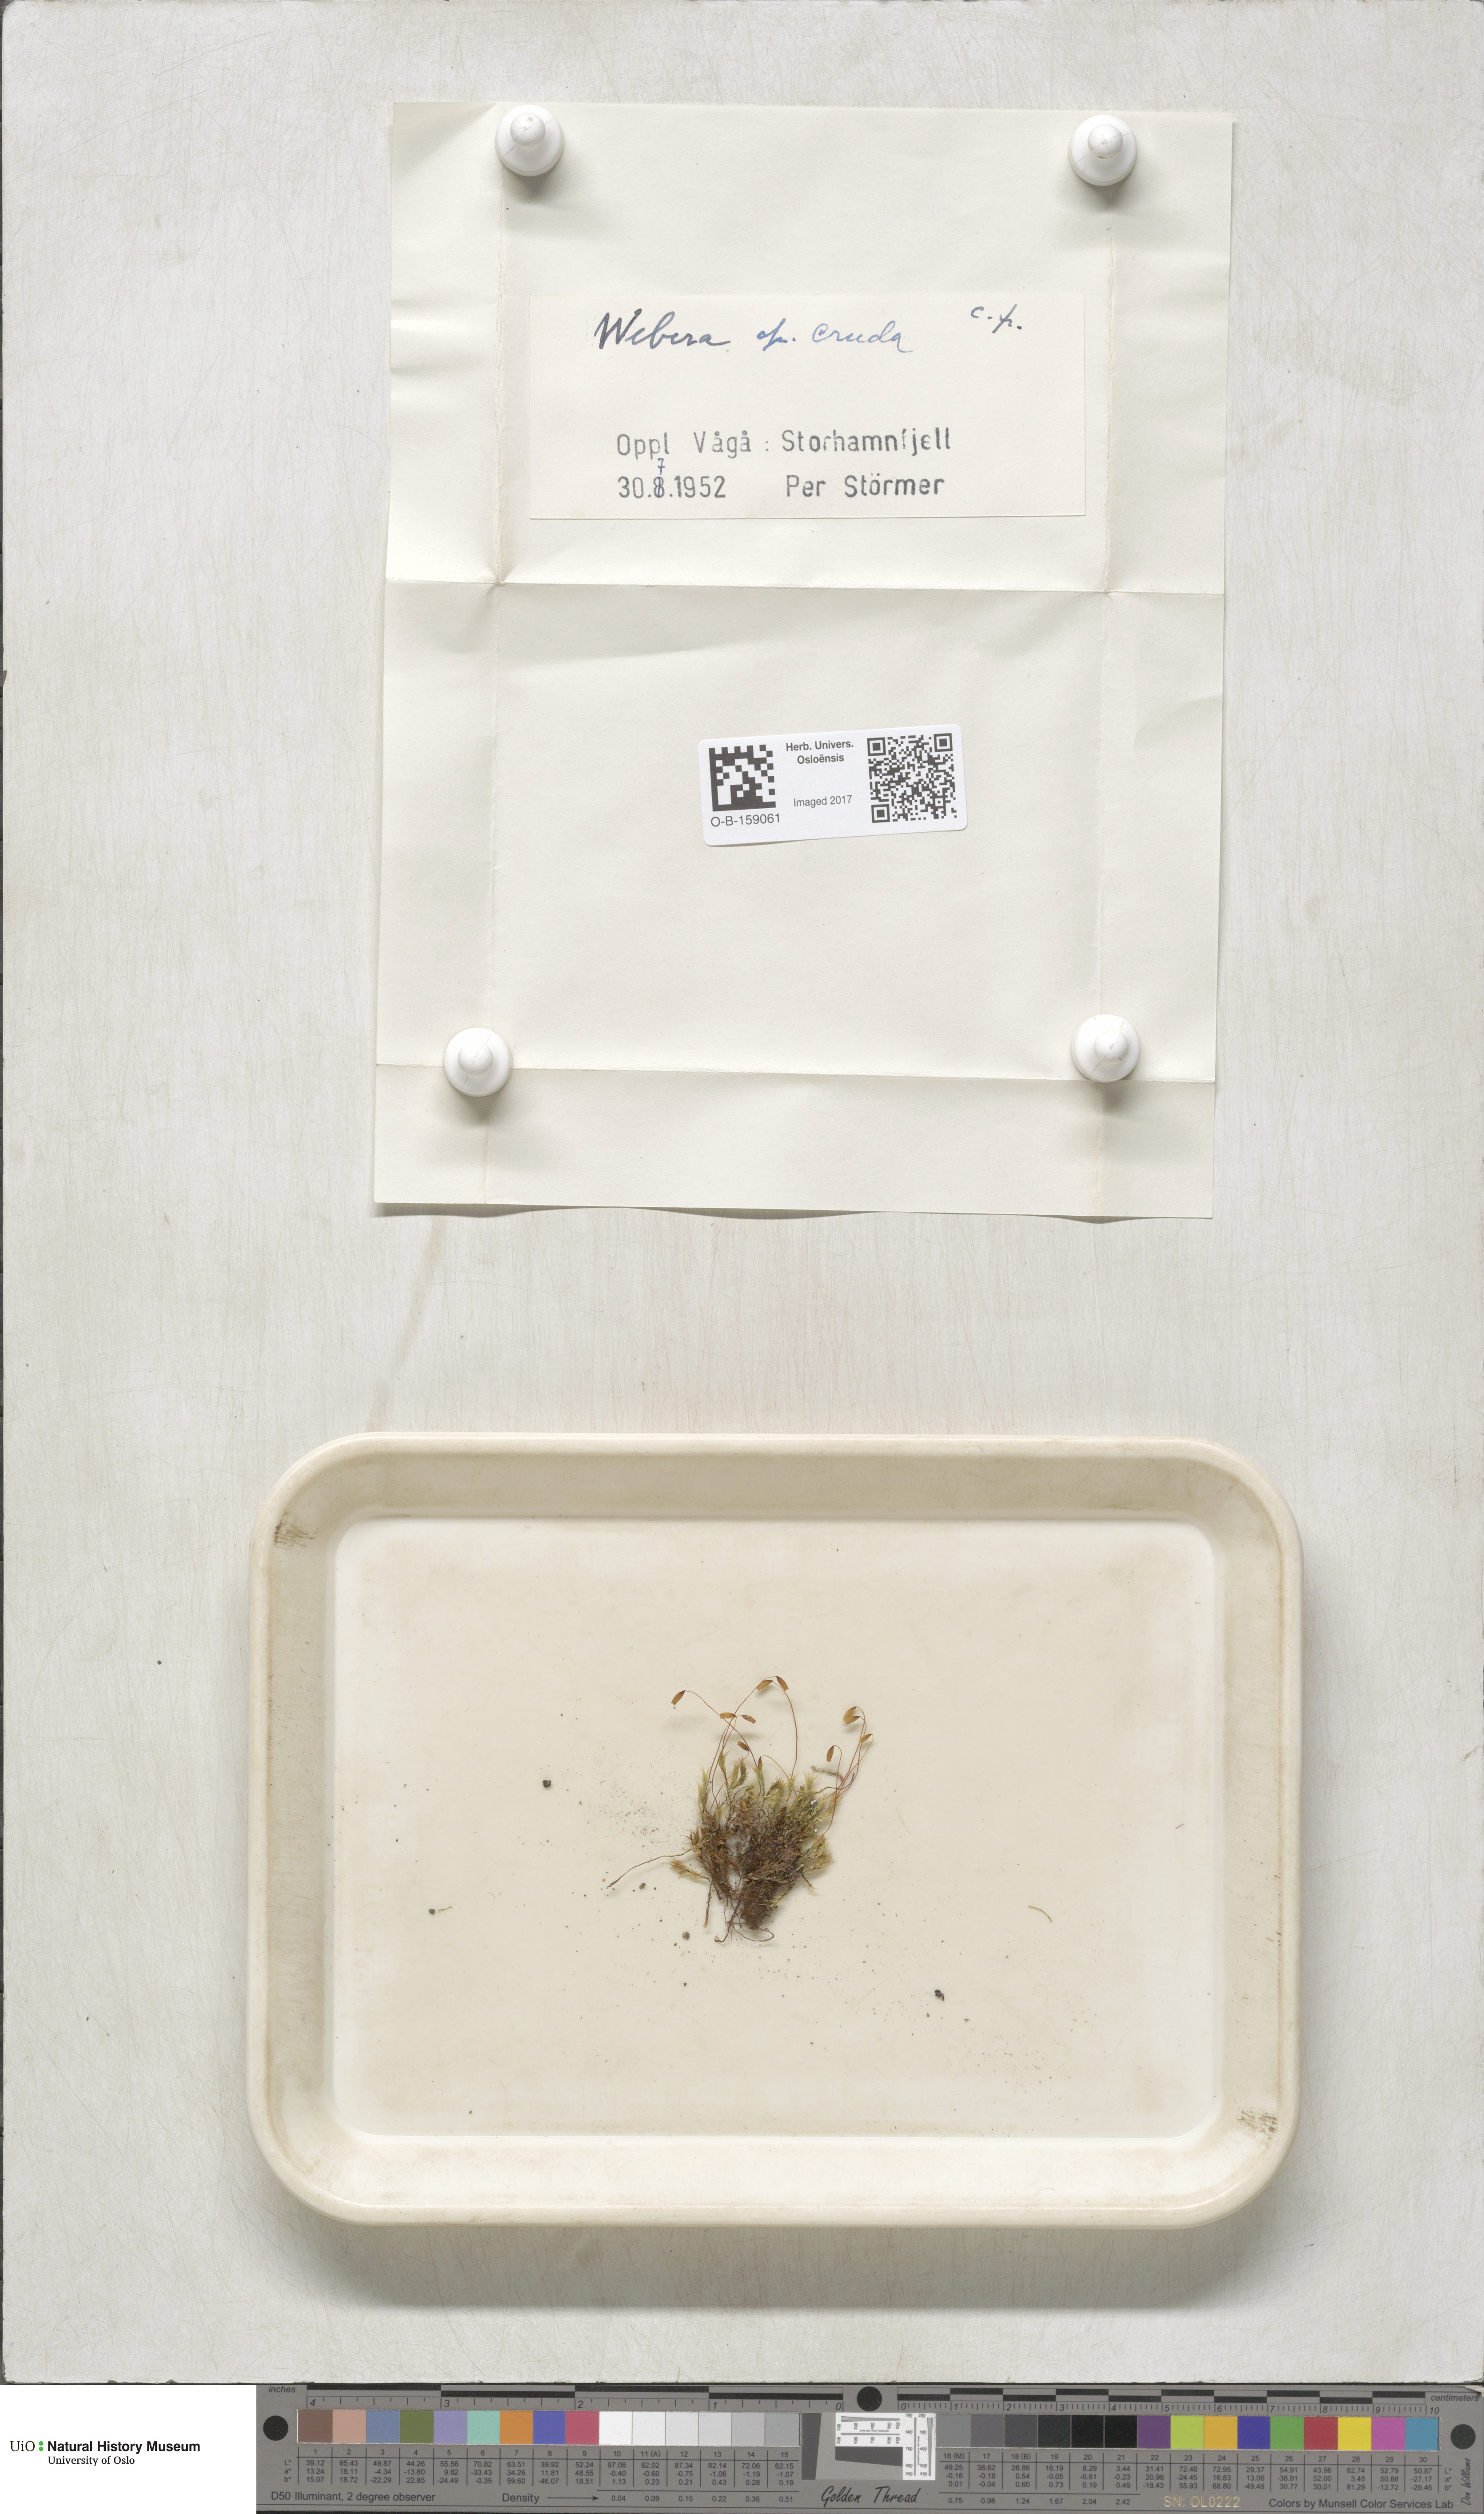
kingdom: Plantae
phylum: Bryophyta
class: Bryopsida
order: Bryales
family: Mniaceae
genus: Pohlia
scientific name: Pohlia cruda
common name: Opal nodding moss
